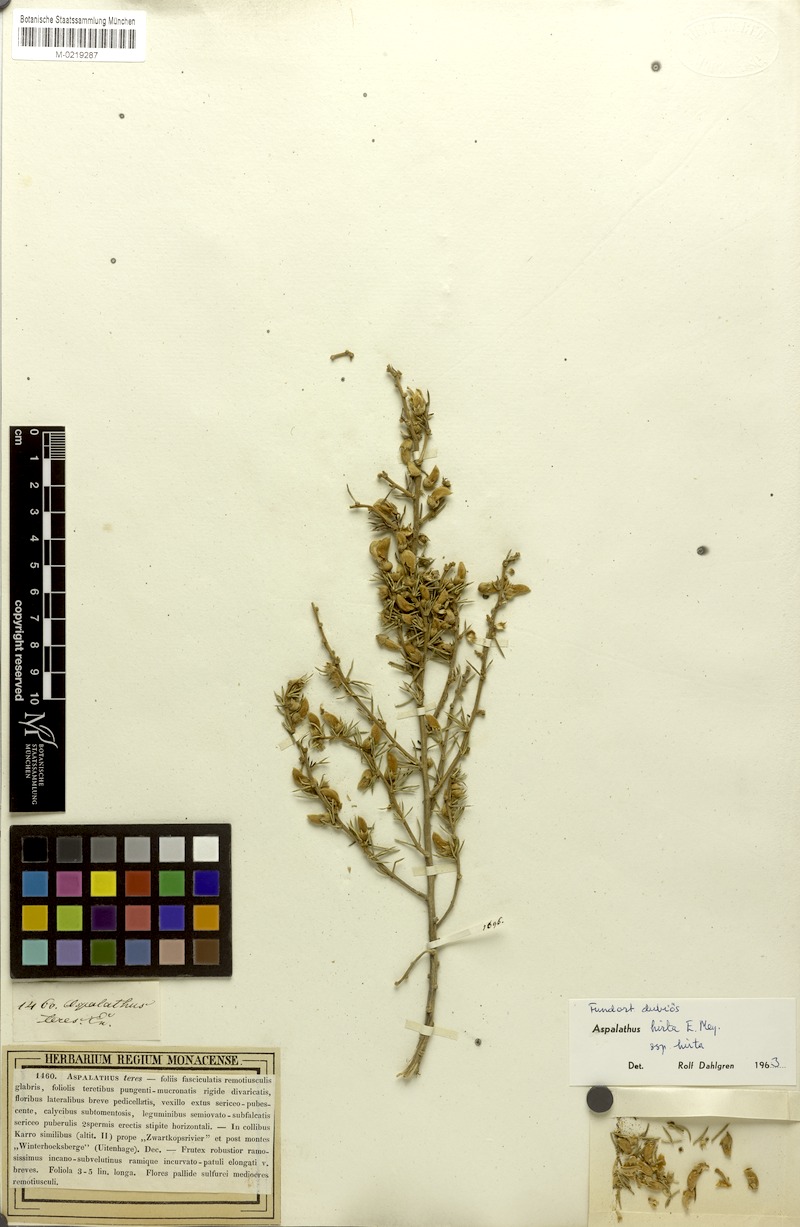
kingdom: Plantae
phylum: Tracheophyta
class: Magnoliopsida
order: Fabales
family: Fabaceae
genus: Aspalathus
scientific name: Aspalathus hirta
